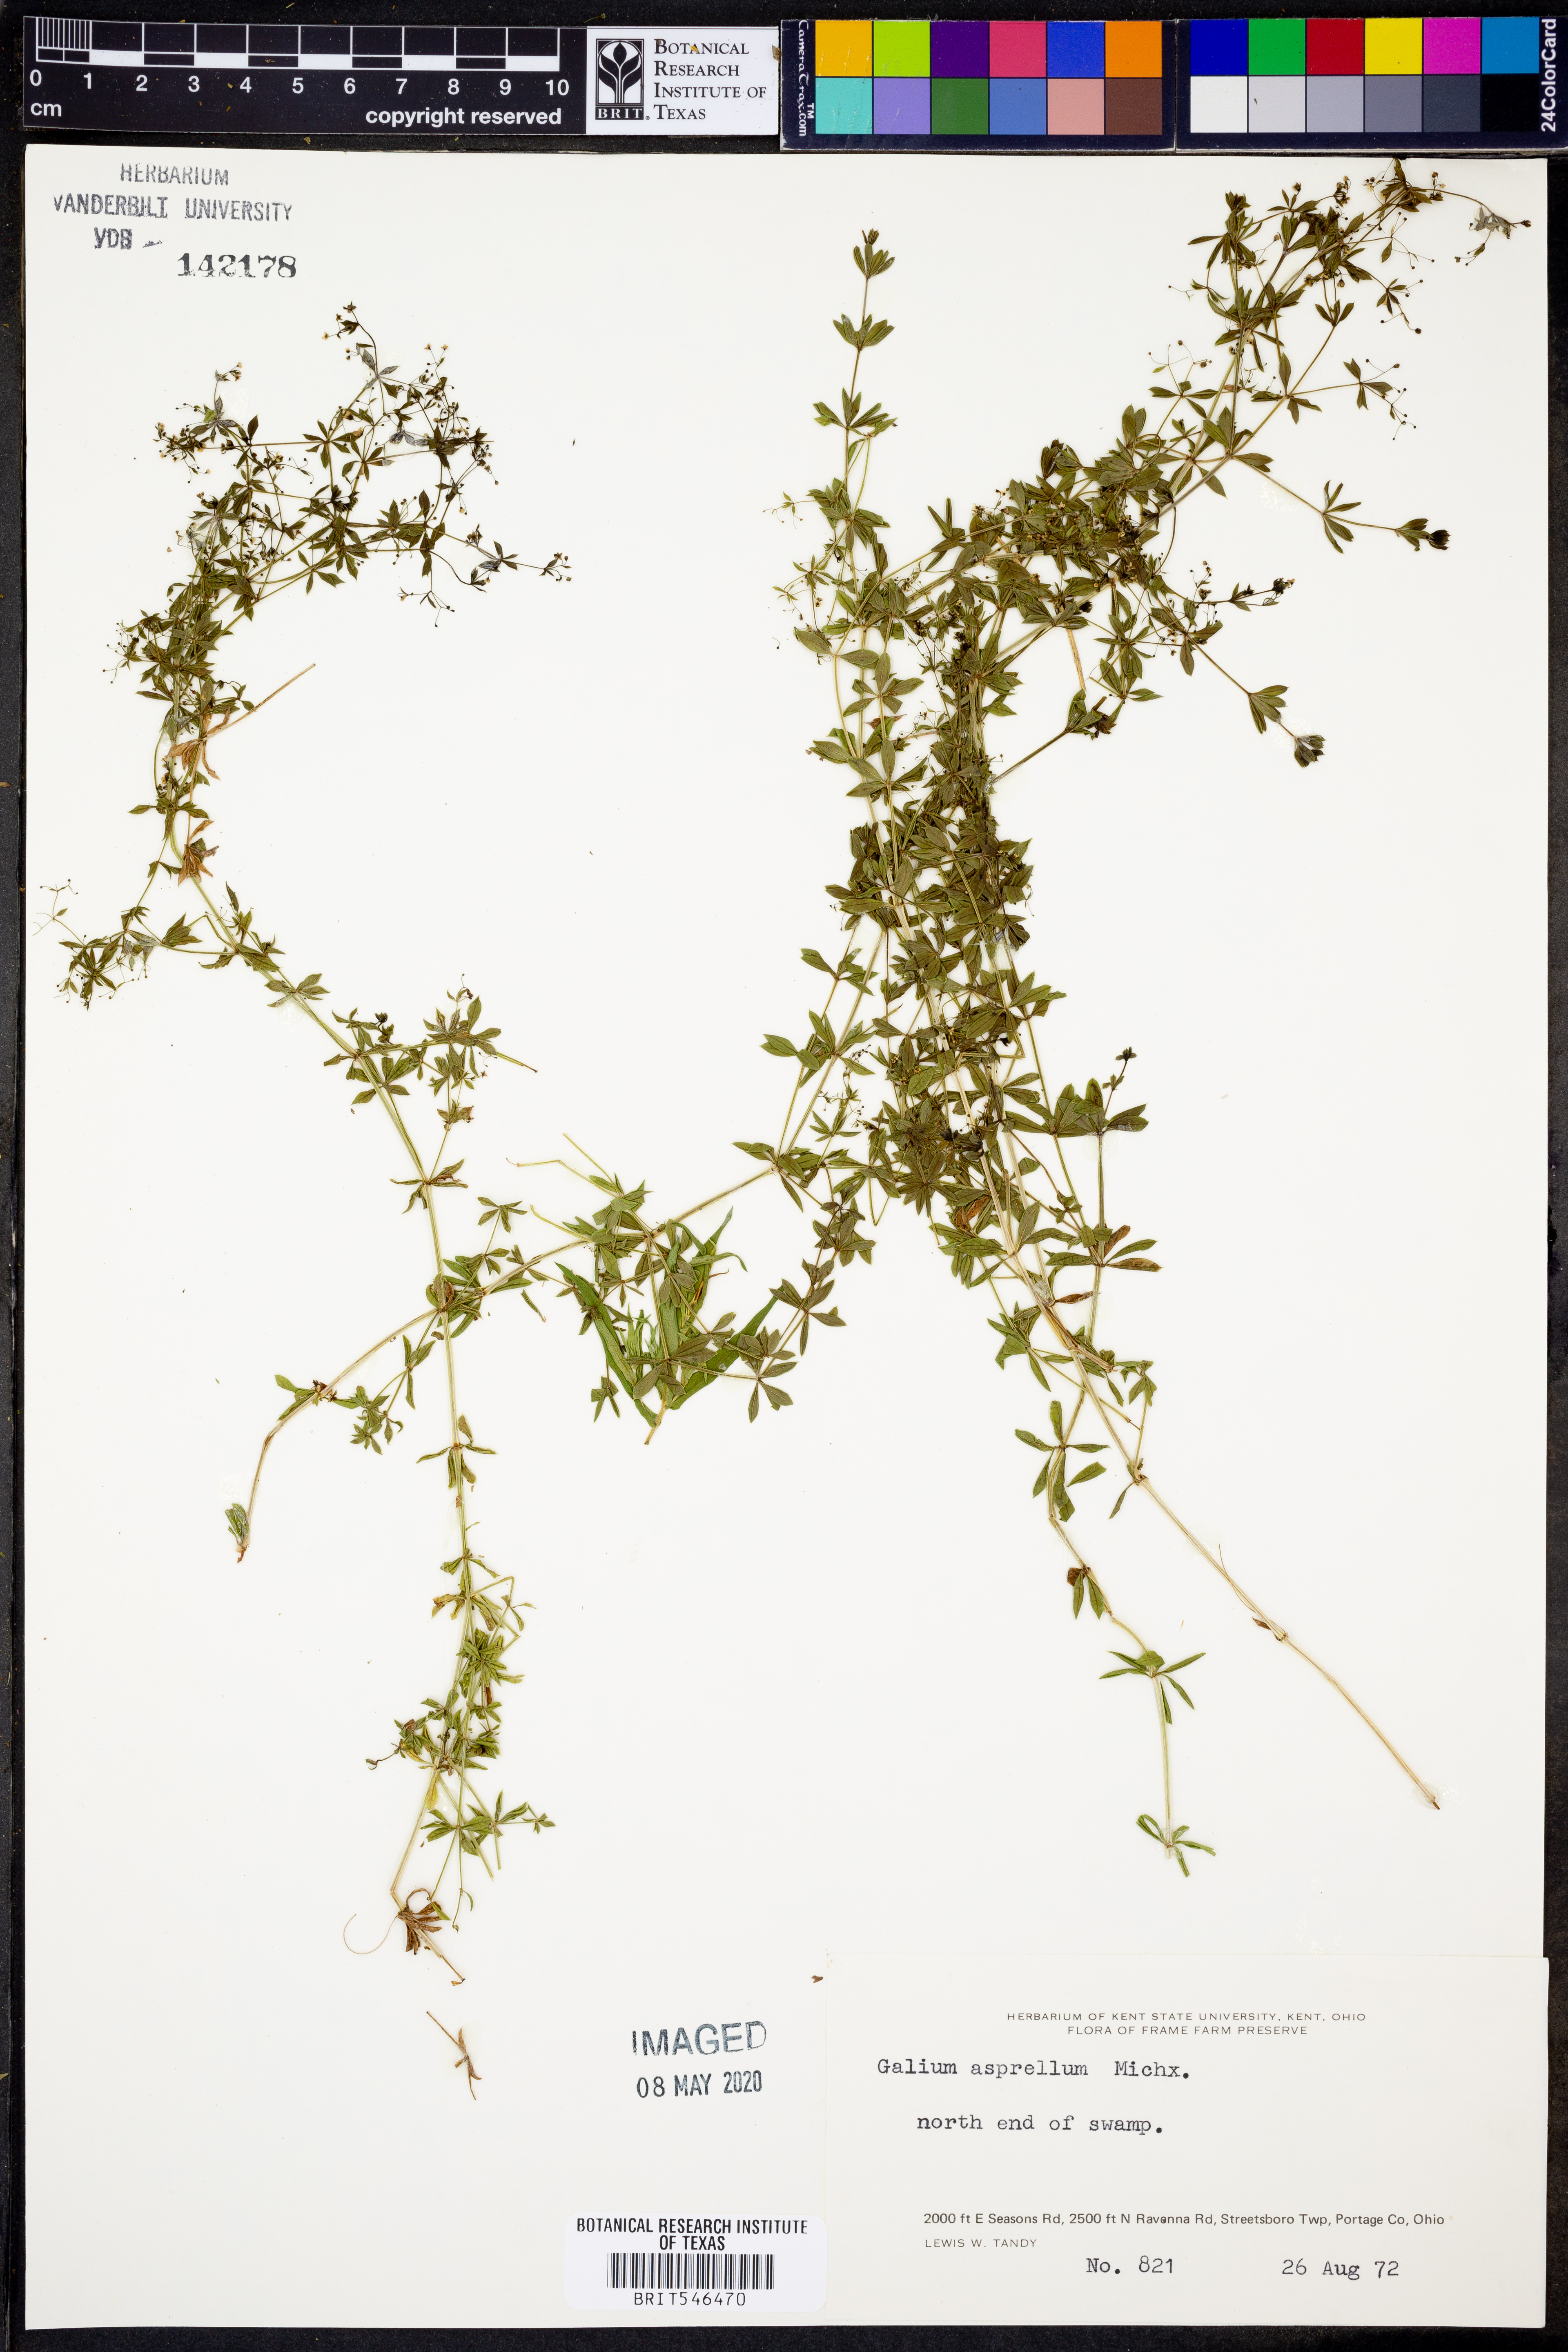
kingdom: Plantae
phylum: Tracheophyta
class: Magnoliopsida
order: Gentianales
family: Rubiaceae
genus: Galium
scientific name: Galium asprellum
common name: Rough bedstraw
